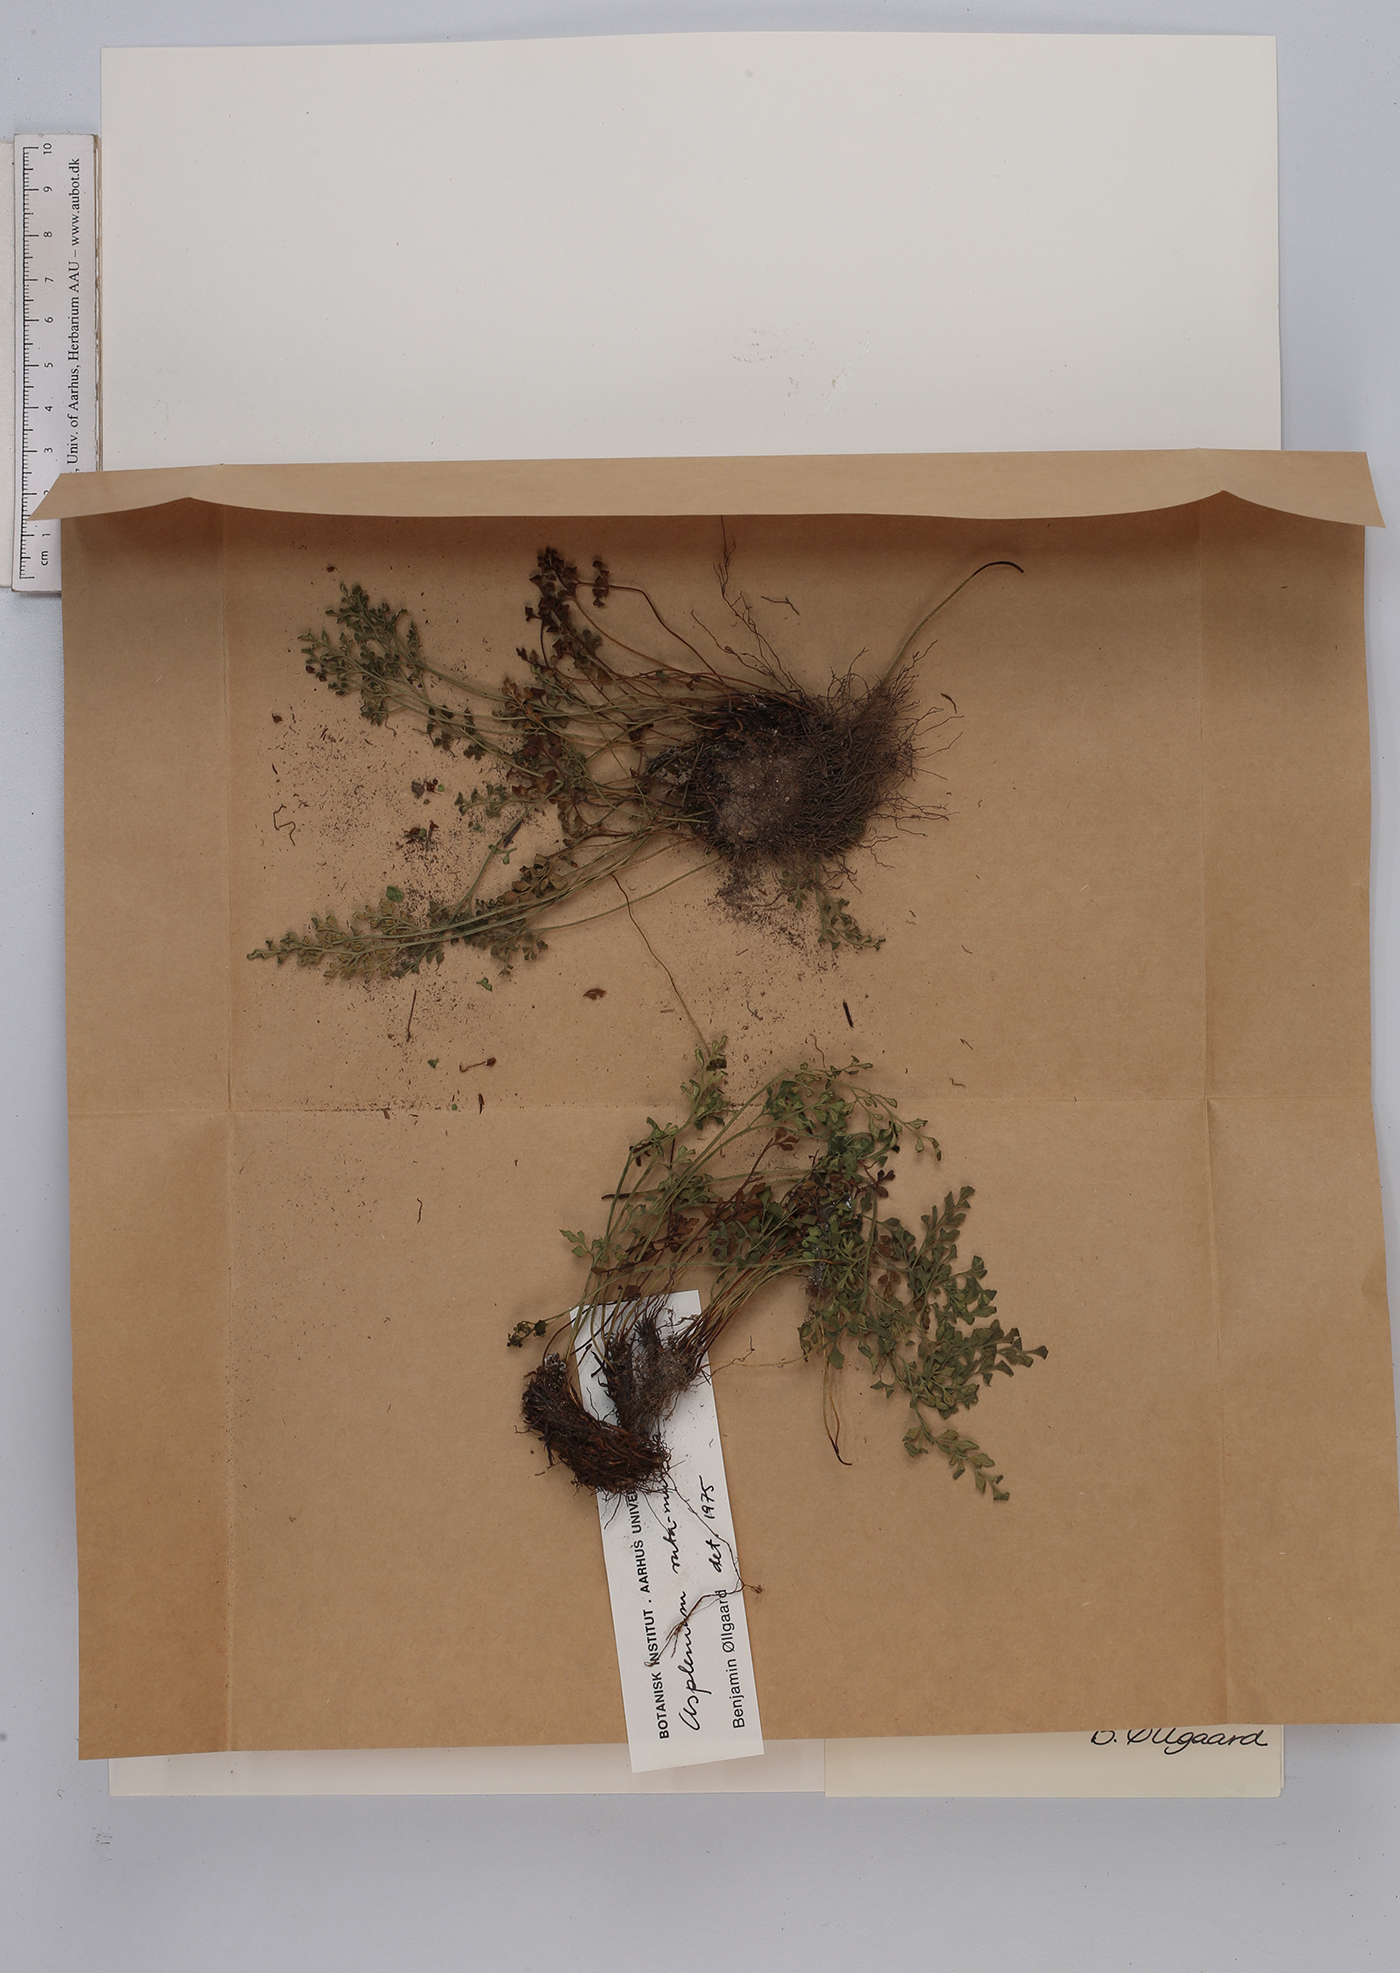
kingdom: Plantae
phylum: Tracheophyta
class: Polypodiopsida
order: Polypodiales
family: Aspleniaceae
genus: Asplenium
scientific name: Asplenium ruta-muraria
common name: Wall-rue
